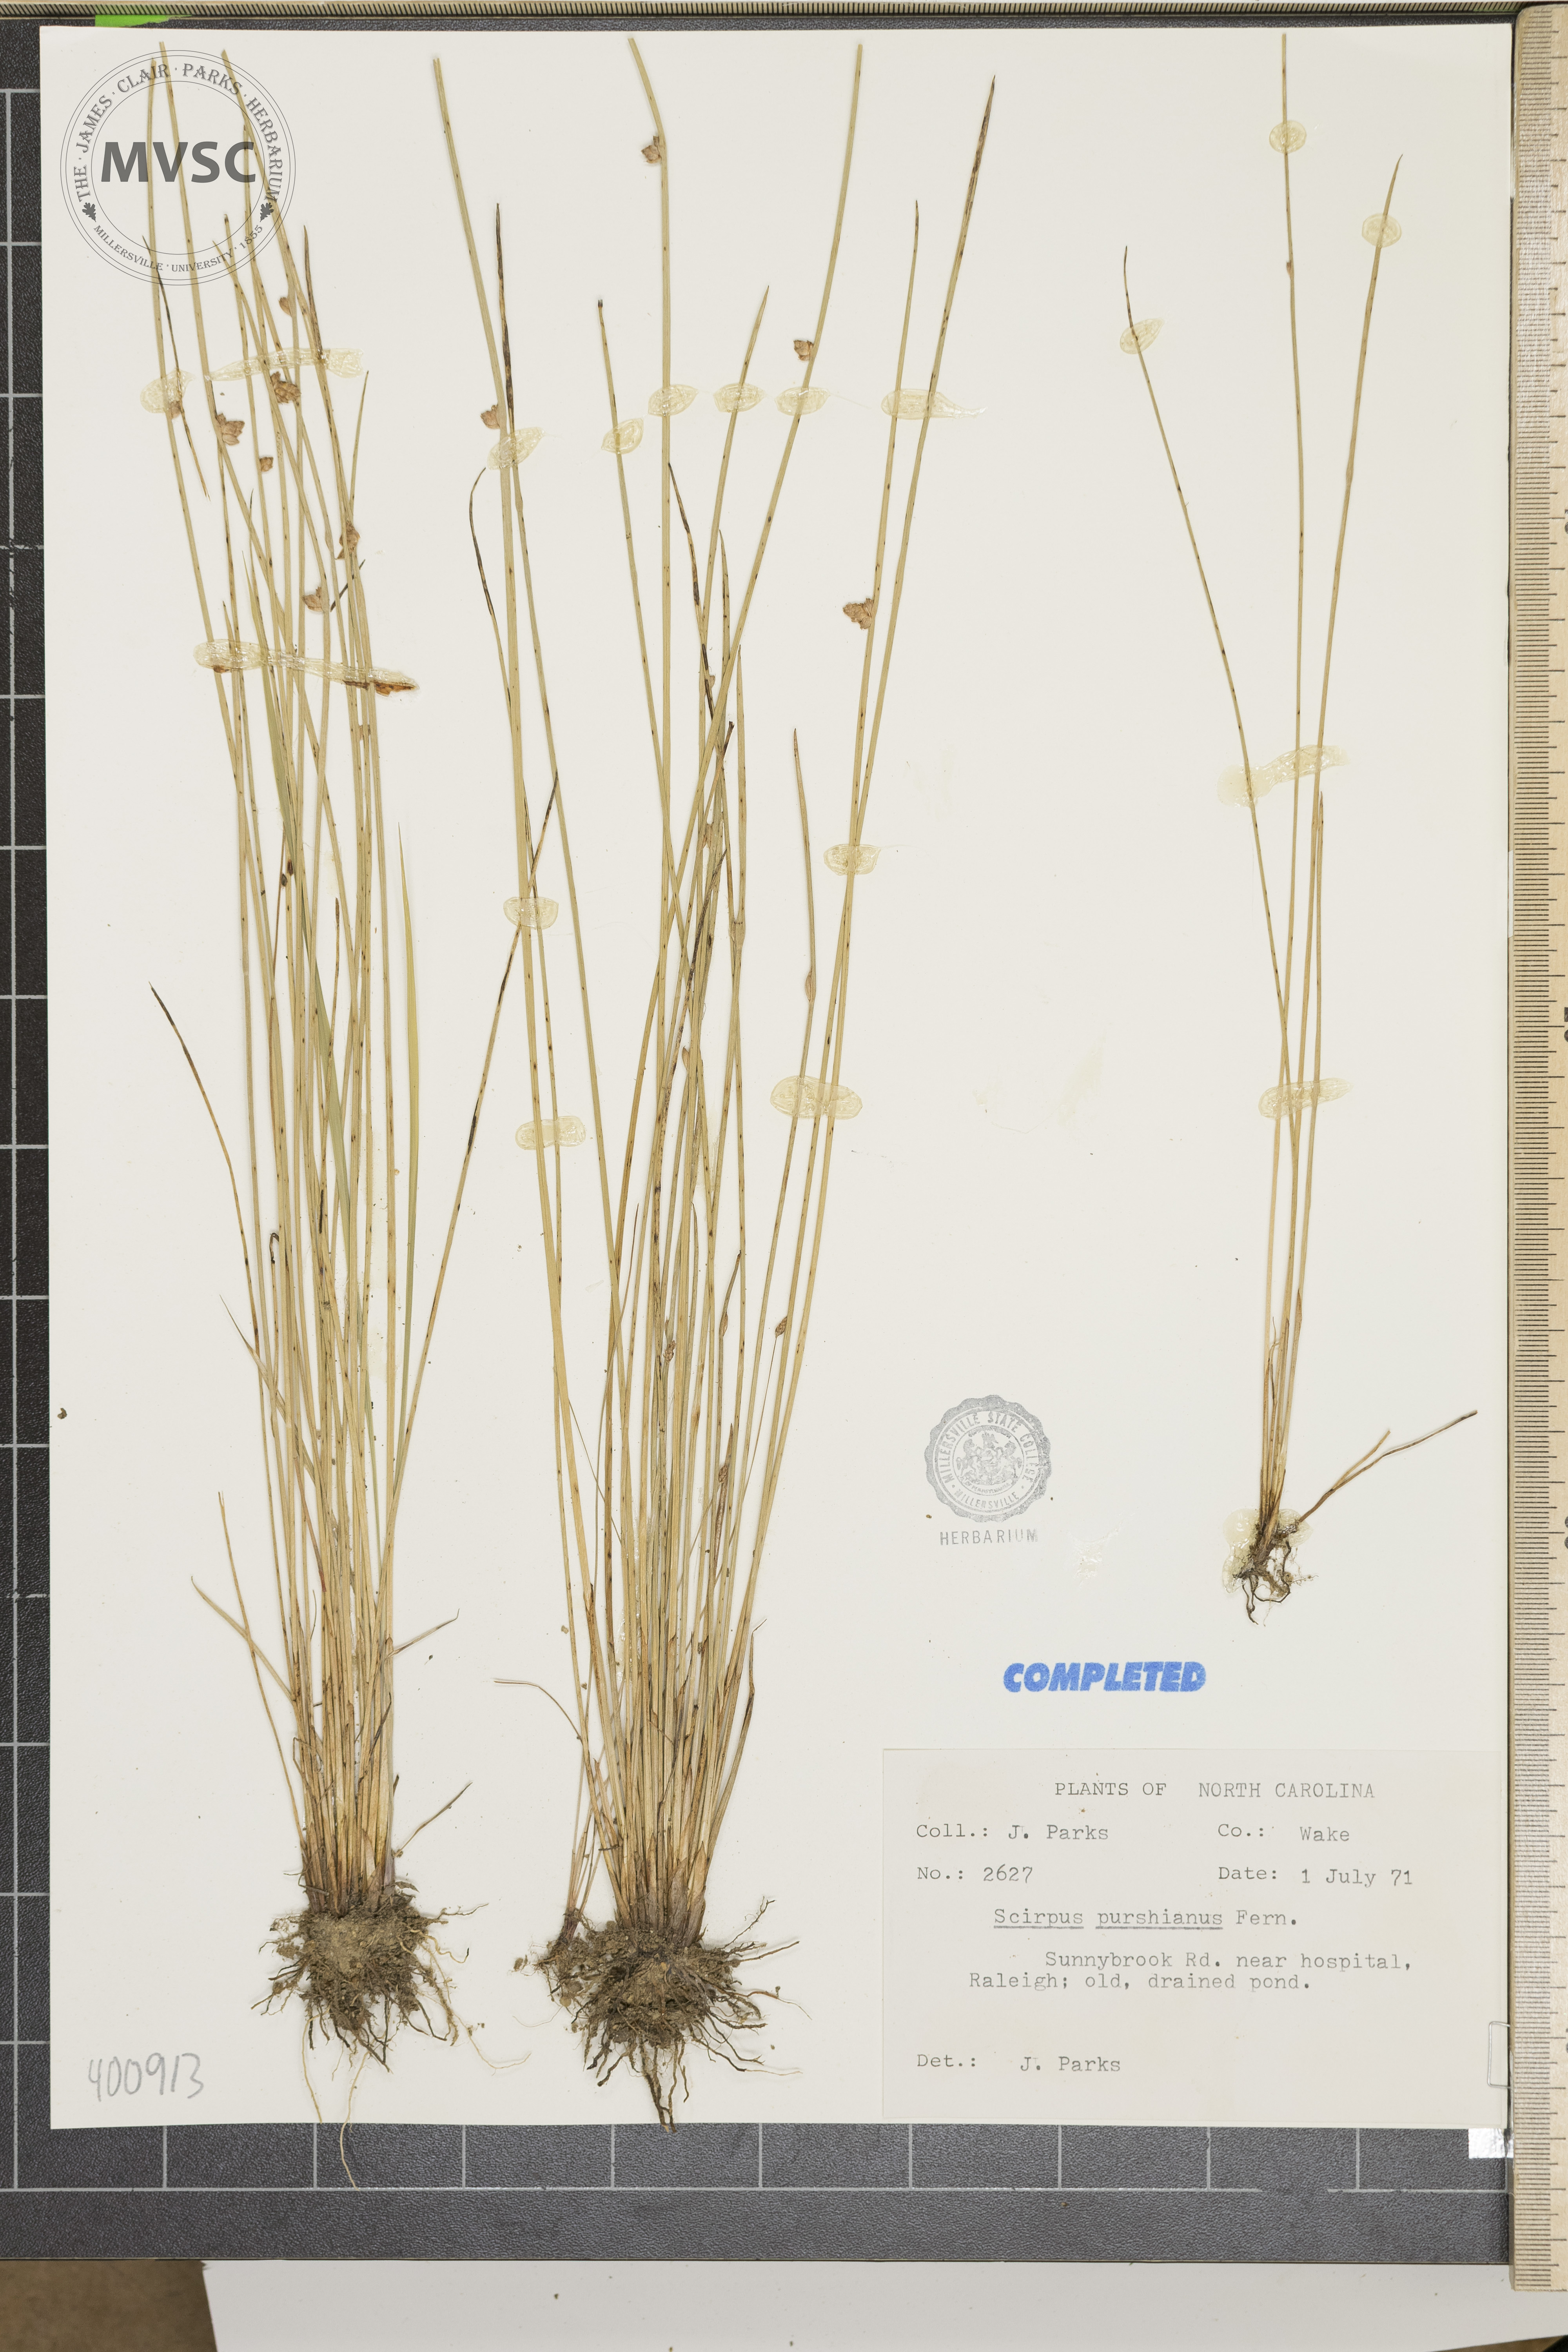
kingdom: Plantae
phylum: Tracheophyta
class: Liliopsida
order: Poales
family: Cyperaceae
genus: Schoenoplectiella
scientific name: Schoenoplectiella smithii
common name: sedge
